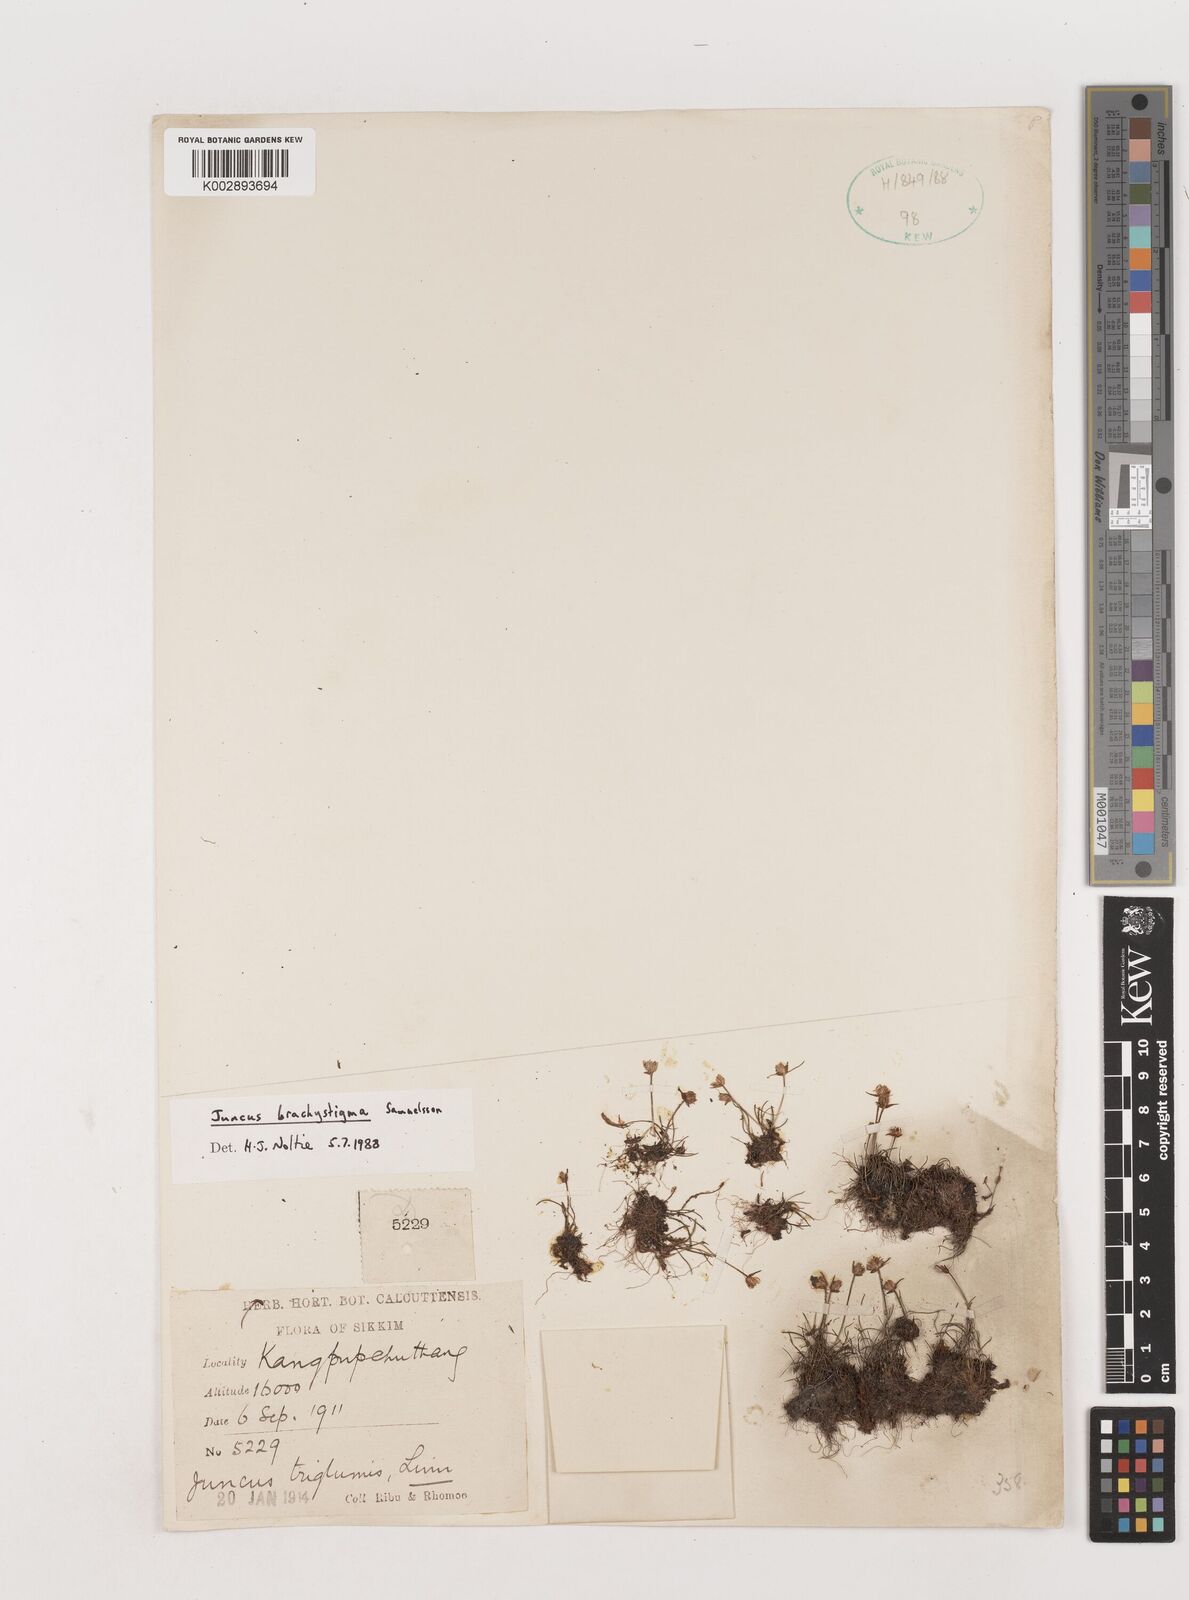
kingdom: Plantae
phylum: Tracheophyta
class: Liliopsida
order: Poales
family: Juncaceae
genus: Juncus
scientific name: Juncus brachystigma
